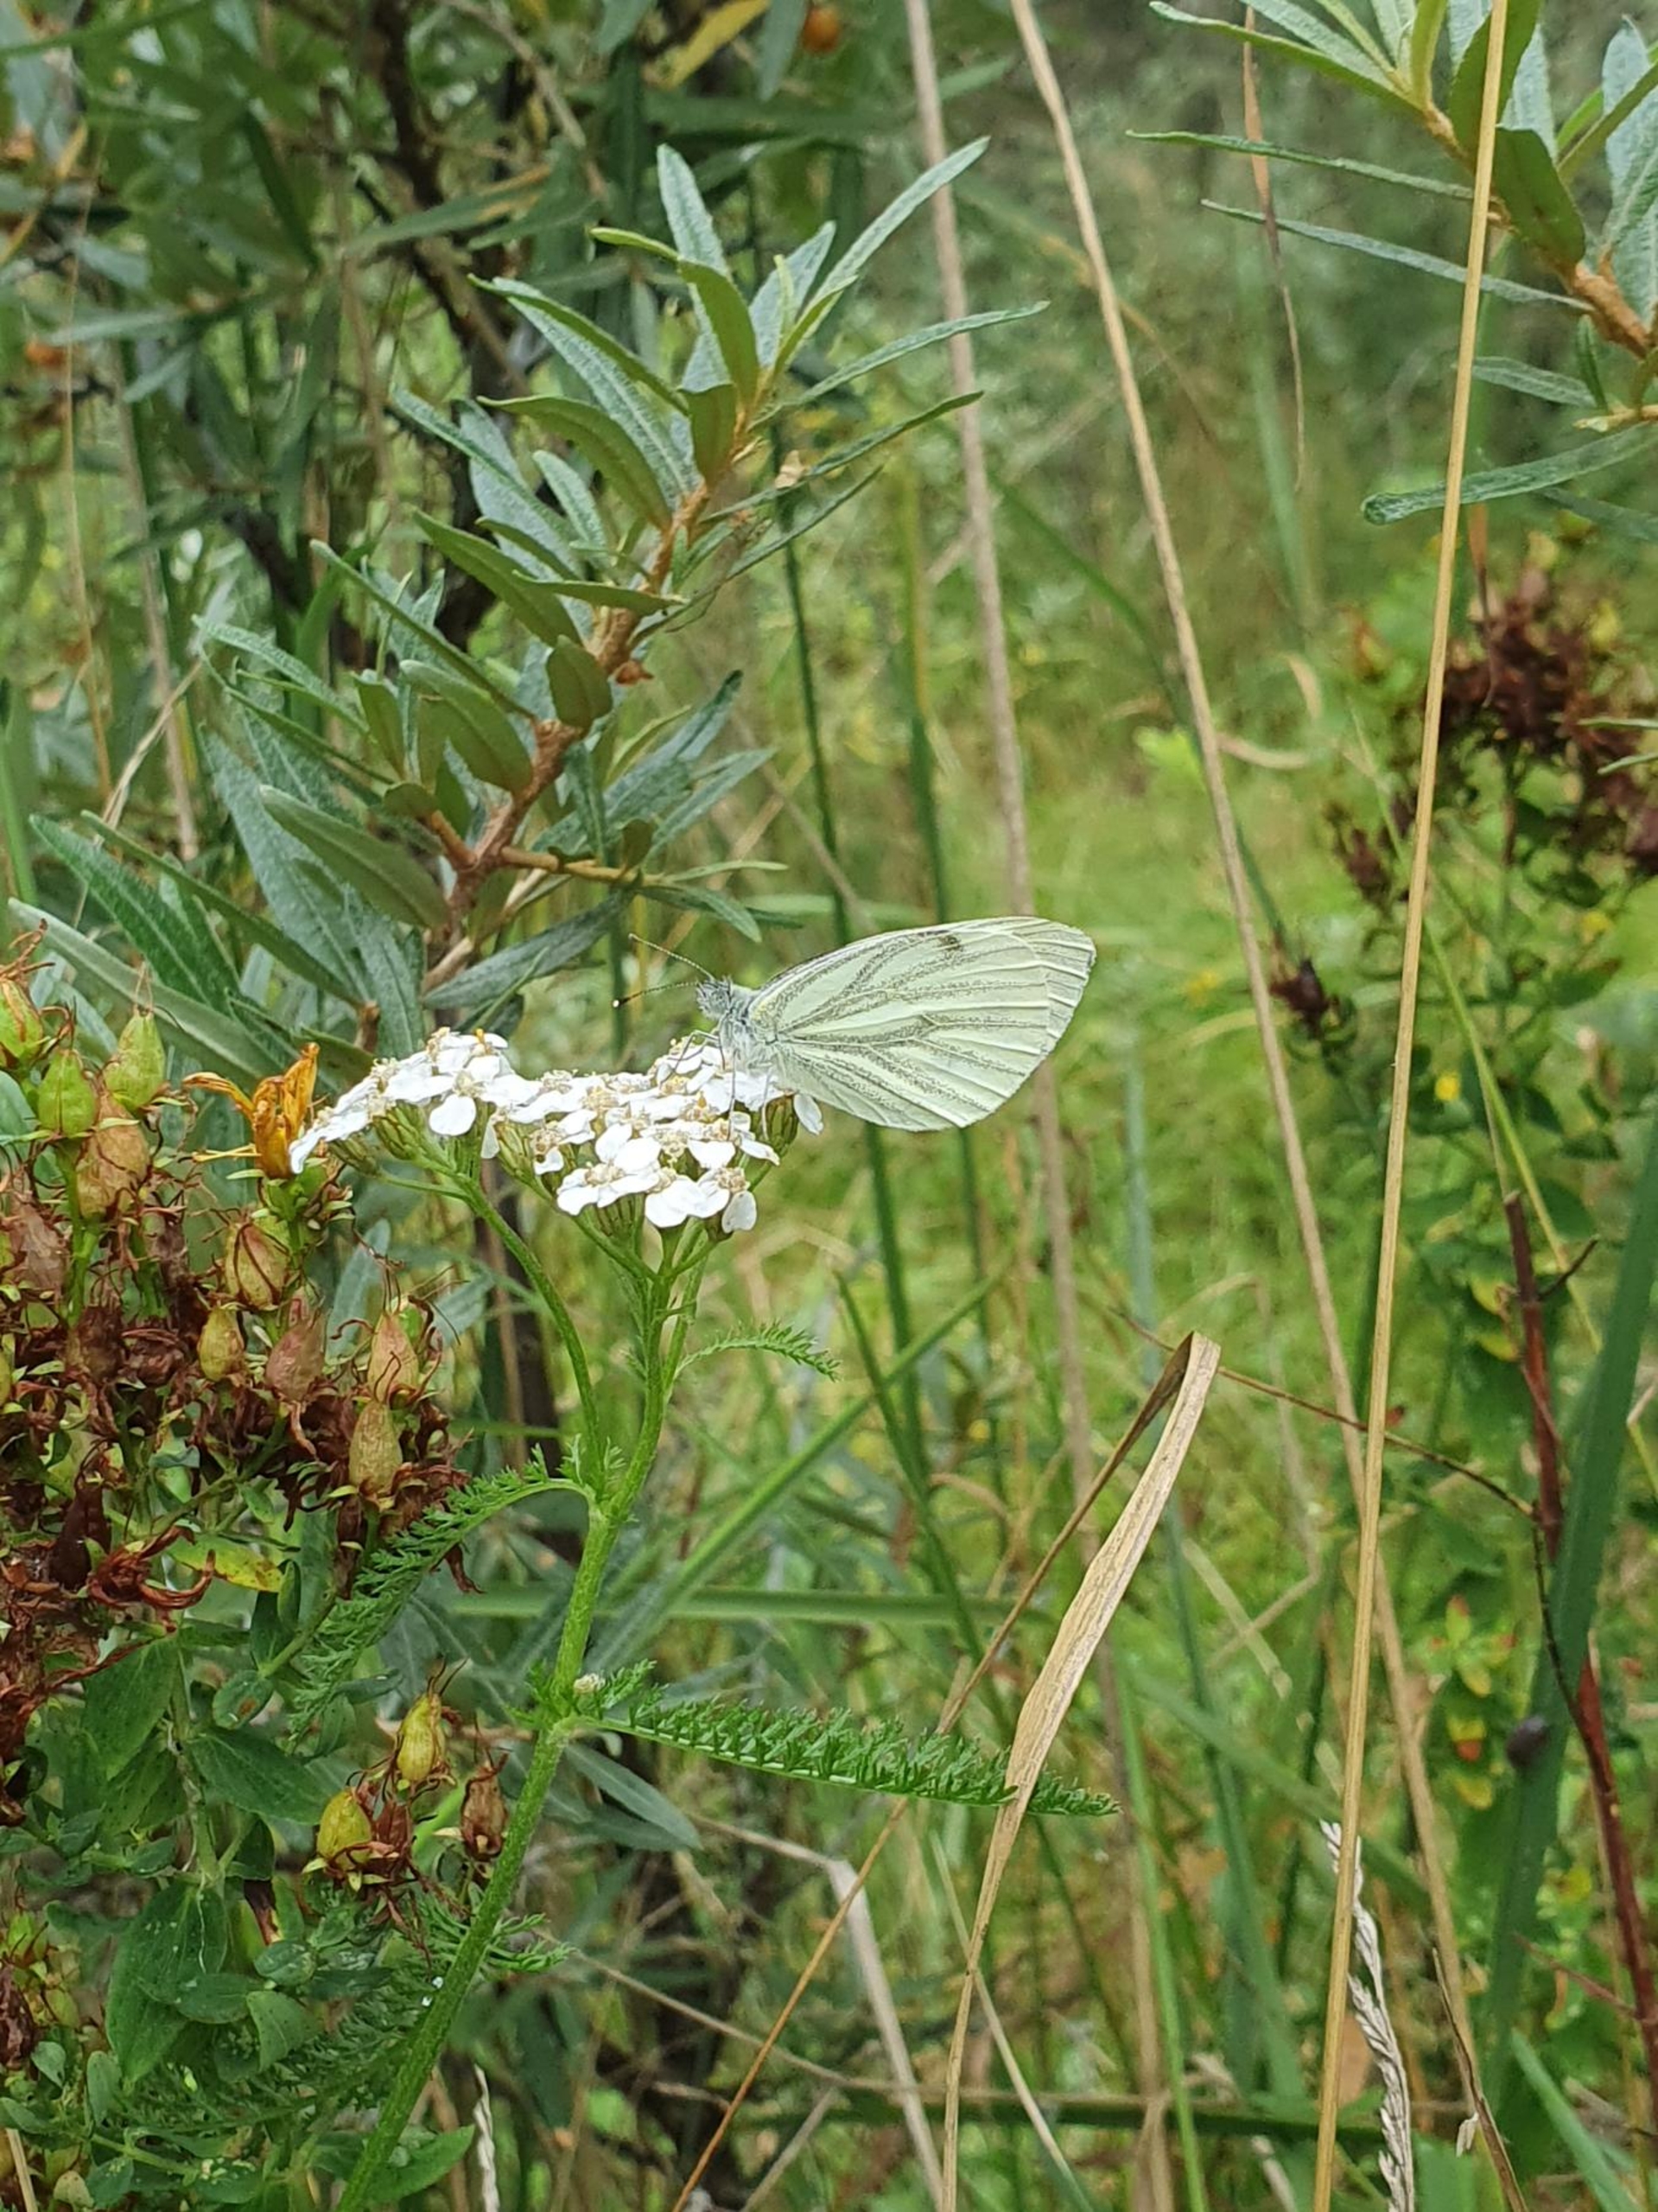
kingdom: Animalia
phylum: Arthropoda
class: Insecta
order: Lepidoptera
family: Pieridae
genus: Pieris
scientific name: Pieris napi
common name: Grønåret kålsommerfugl
